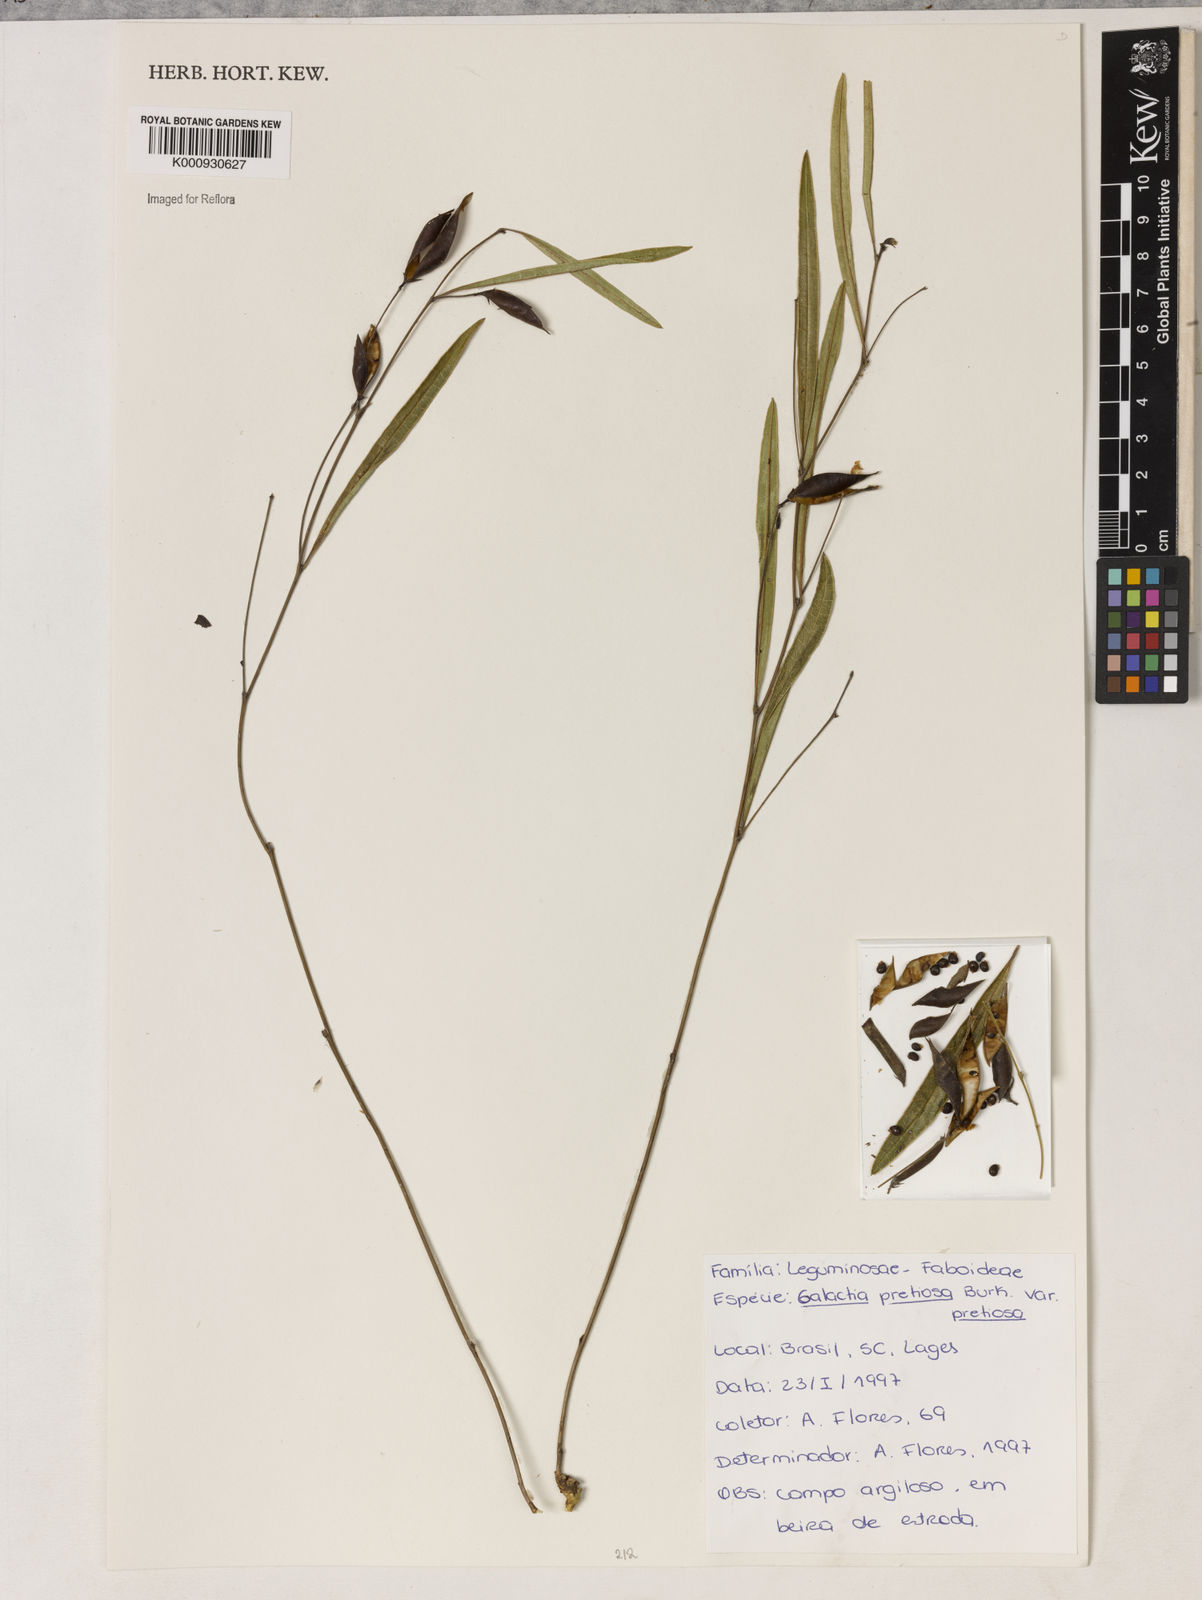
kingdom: Plantae
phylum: Tracheophyta
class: Magnoliopsida
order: Fabales
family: Fabaceae
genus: Nanogalactia
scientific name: Nanogalactia pretiosa
